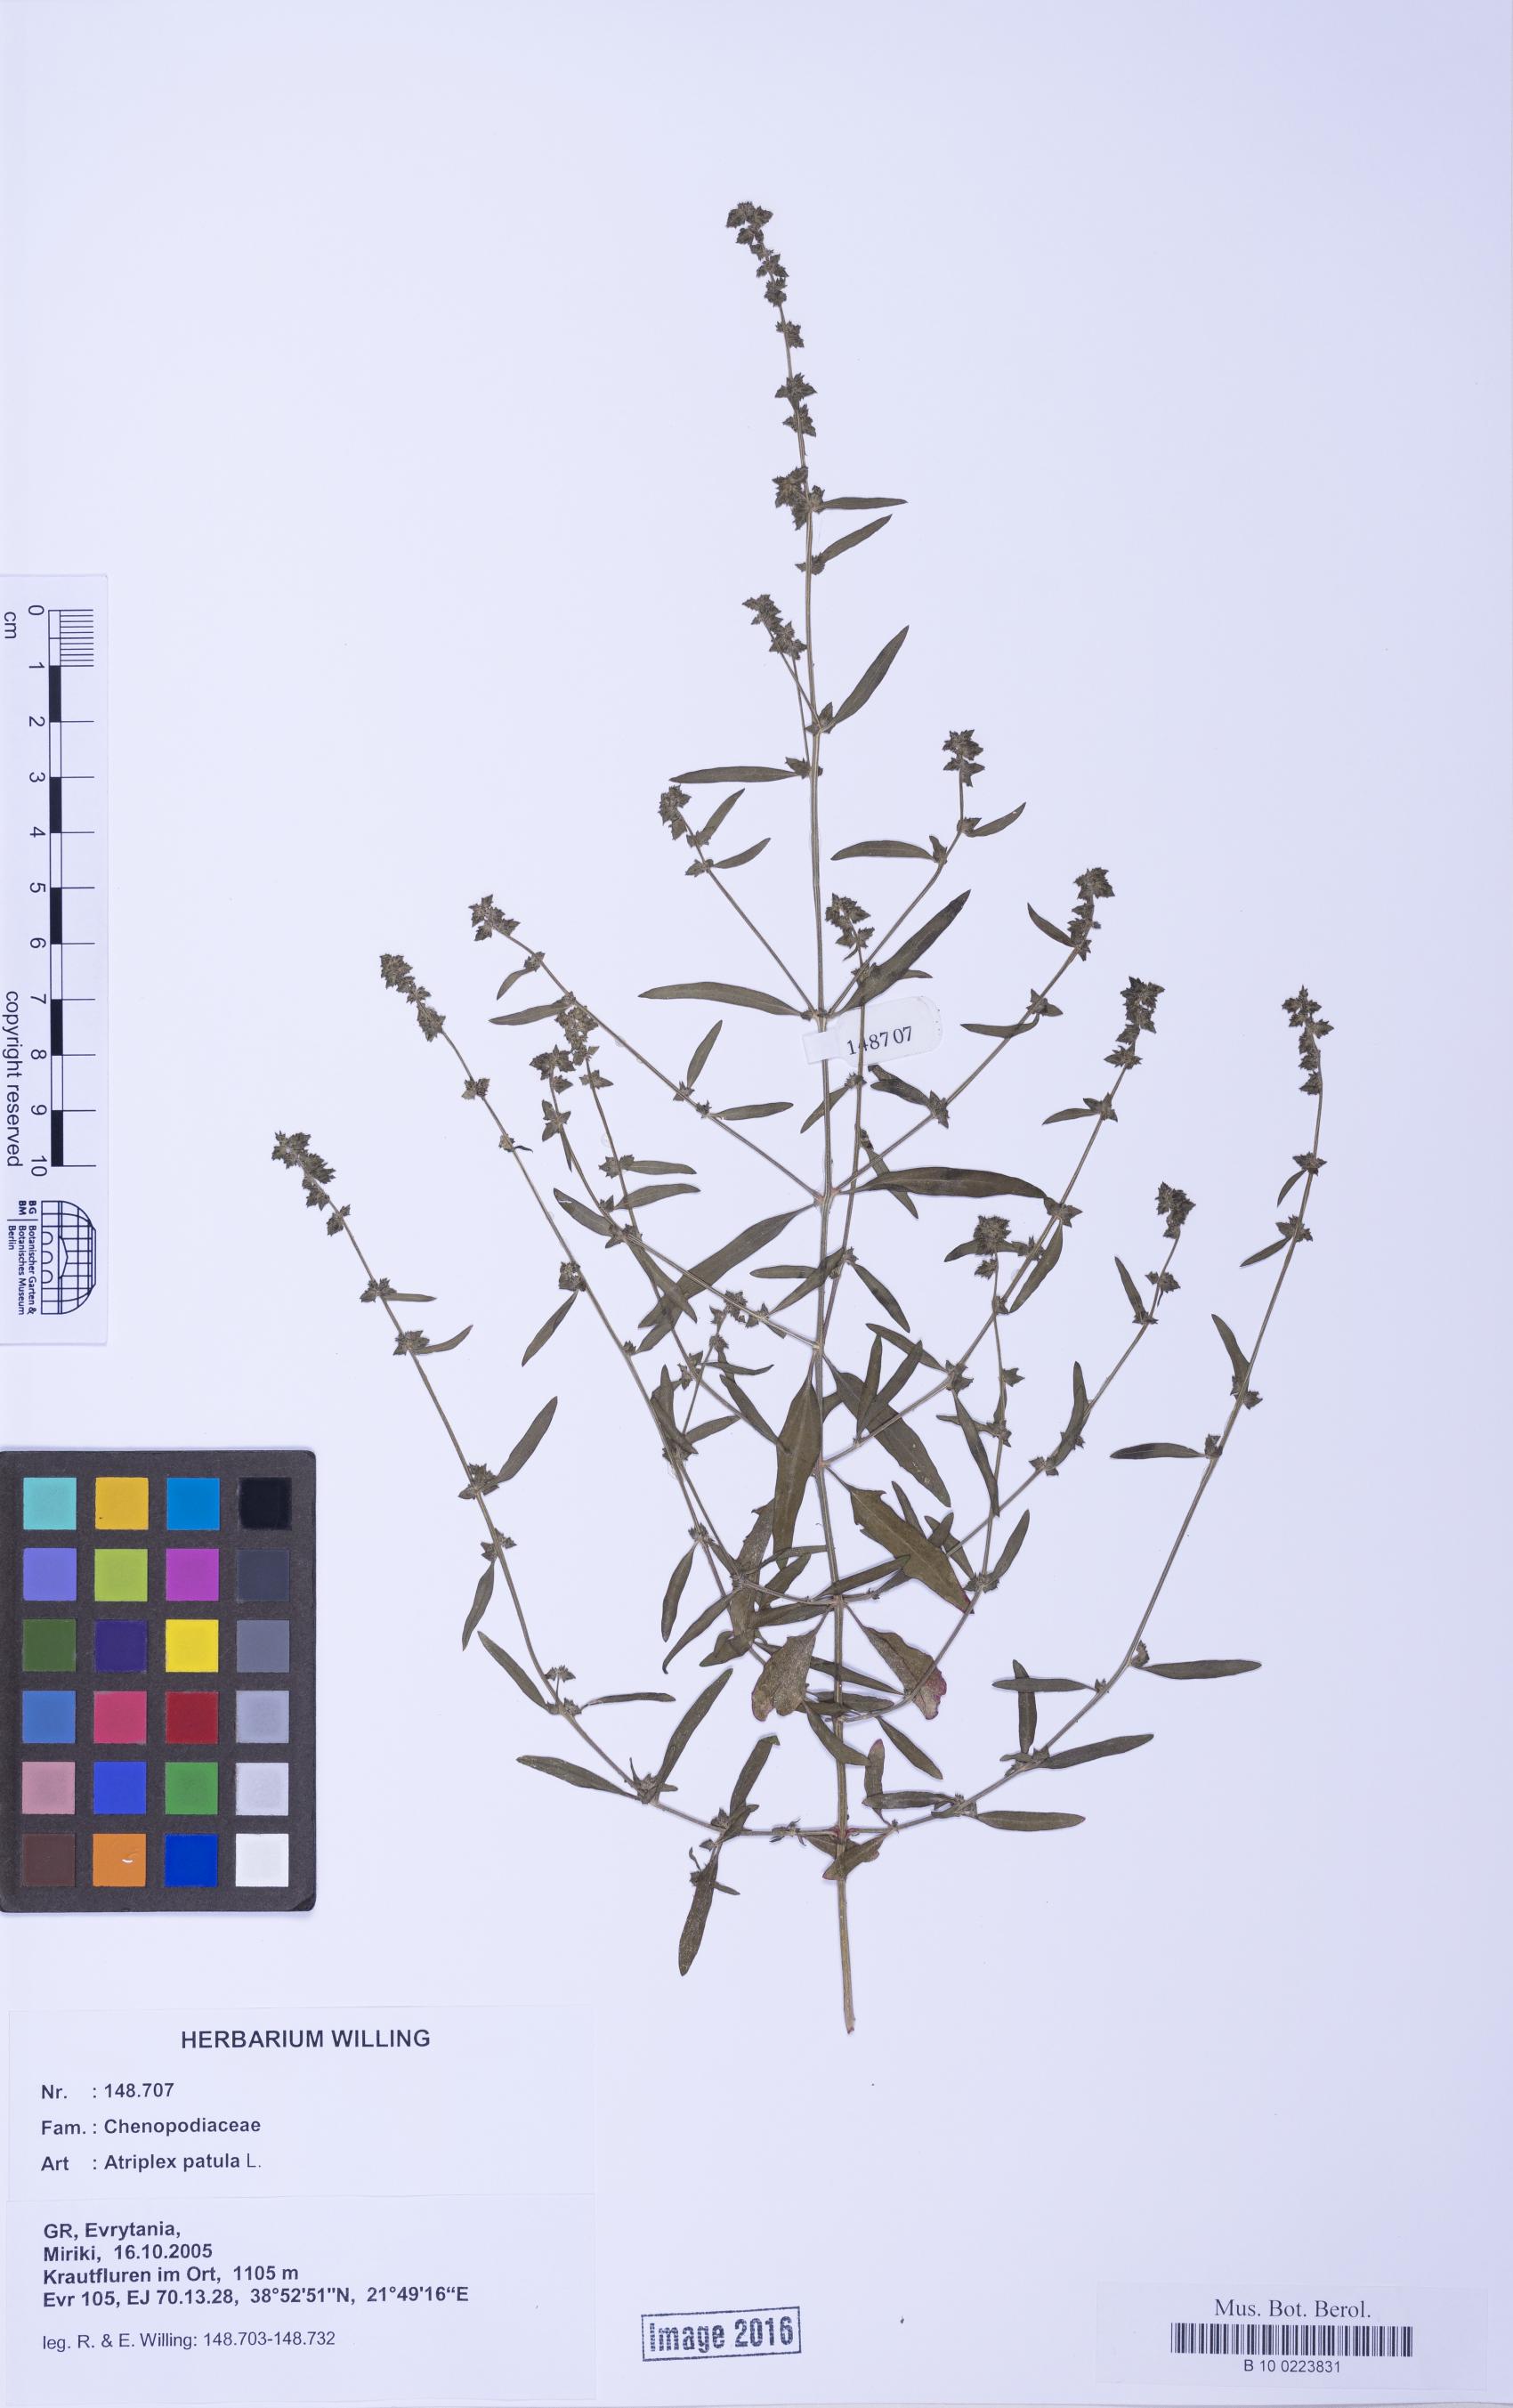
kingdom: Plantae
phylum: Tracheophyta
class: Magnoliopsida
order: Caryophyllales
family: Amaranthaceae
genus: Atriplex
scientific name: Atriplex patula
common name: Common orache
